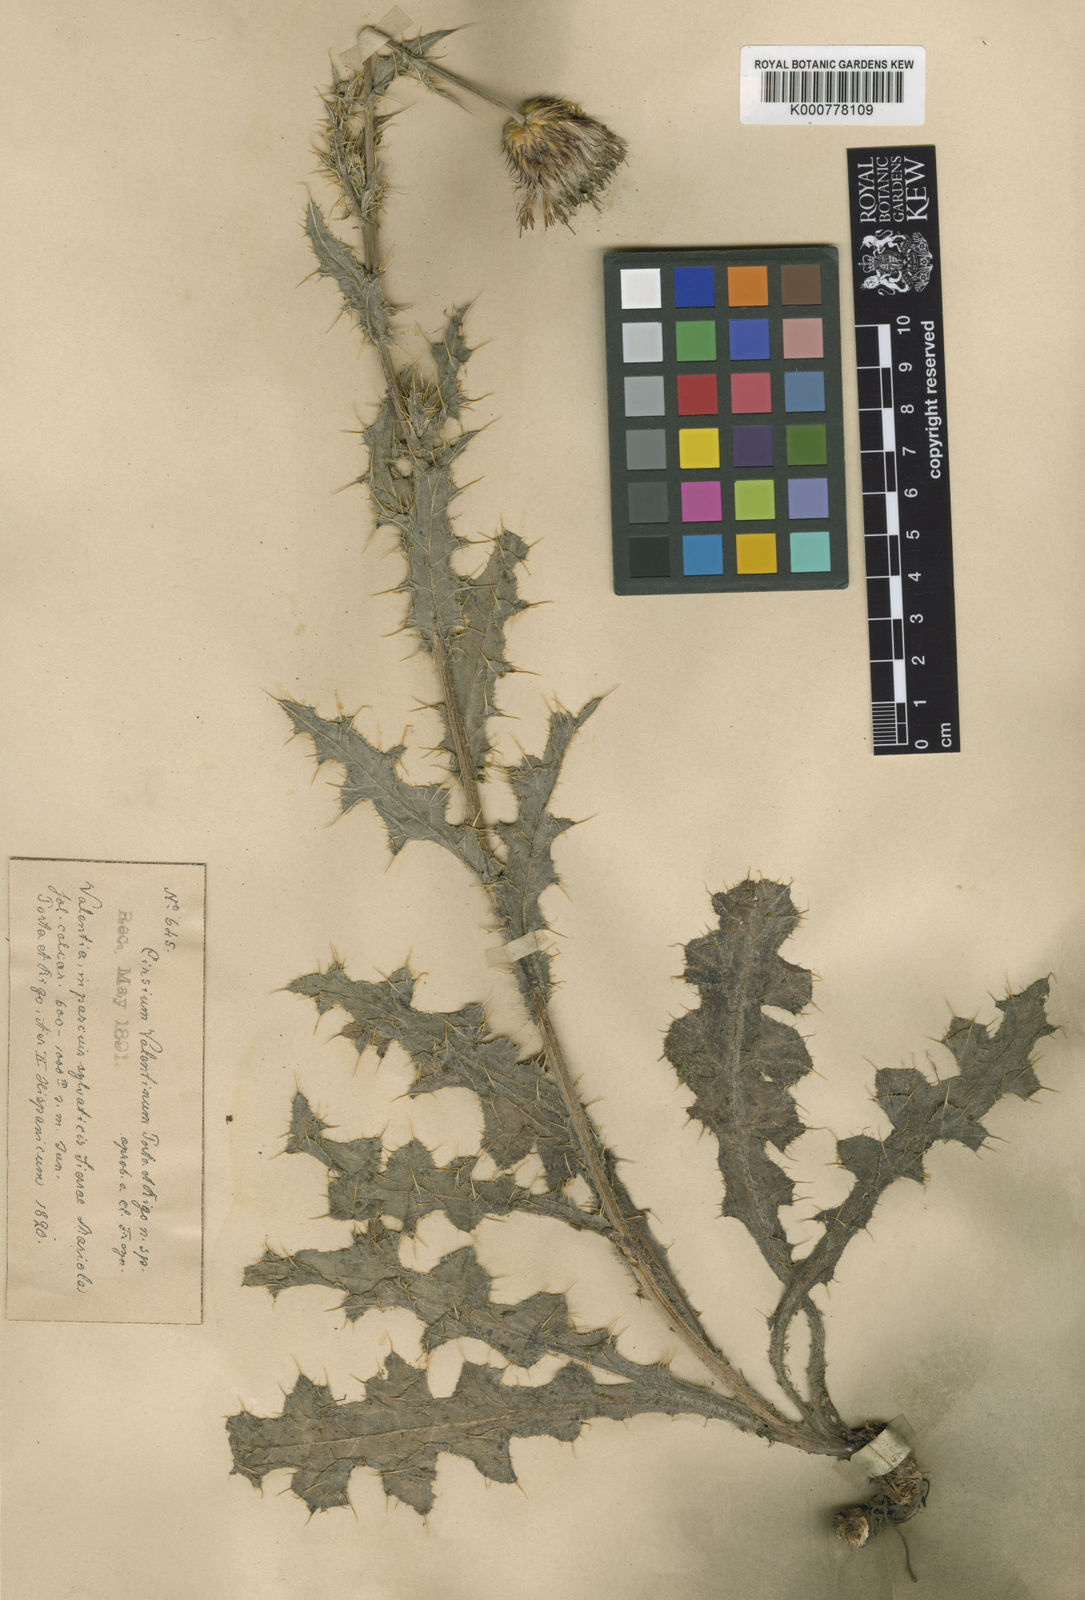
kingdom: Plantae
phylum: Tracheophyta
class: Magnoliopsida
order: Asterales
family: Asteraceae
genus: Cirsium
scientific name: Cirsium valentinum
